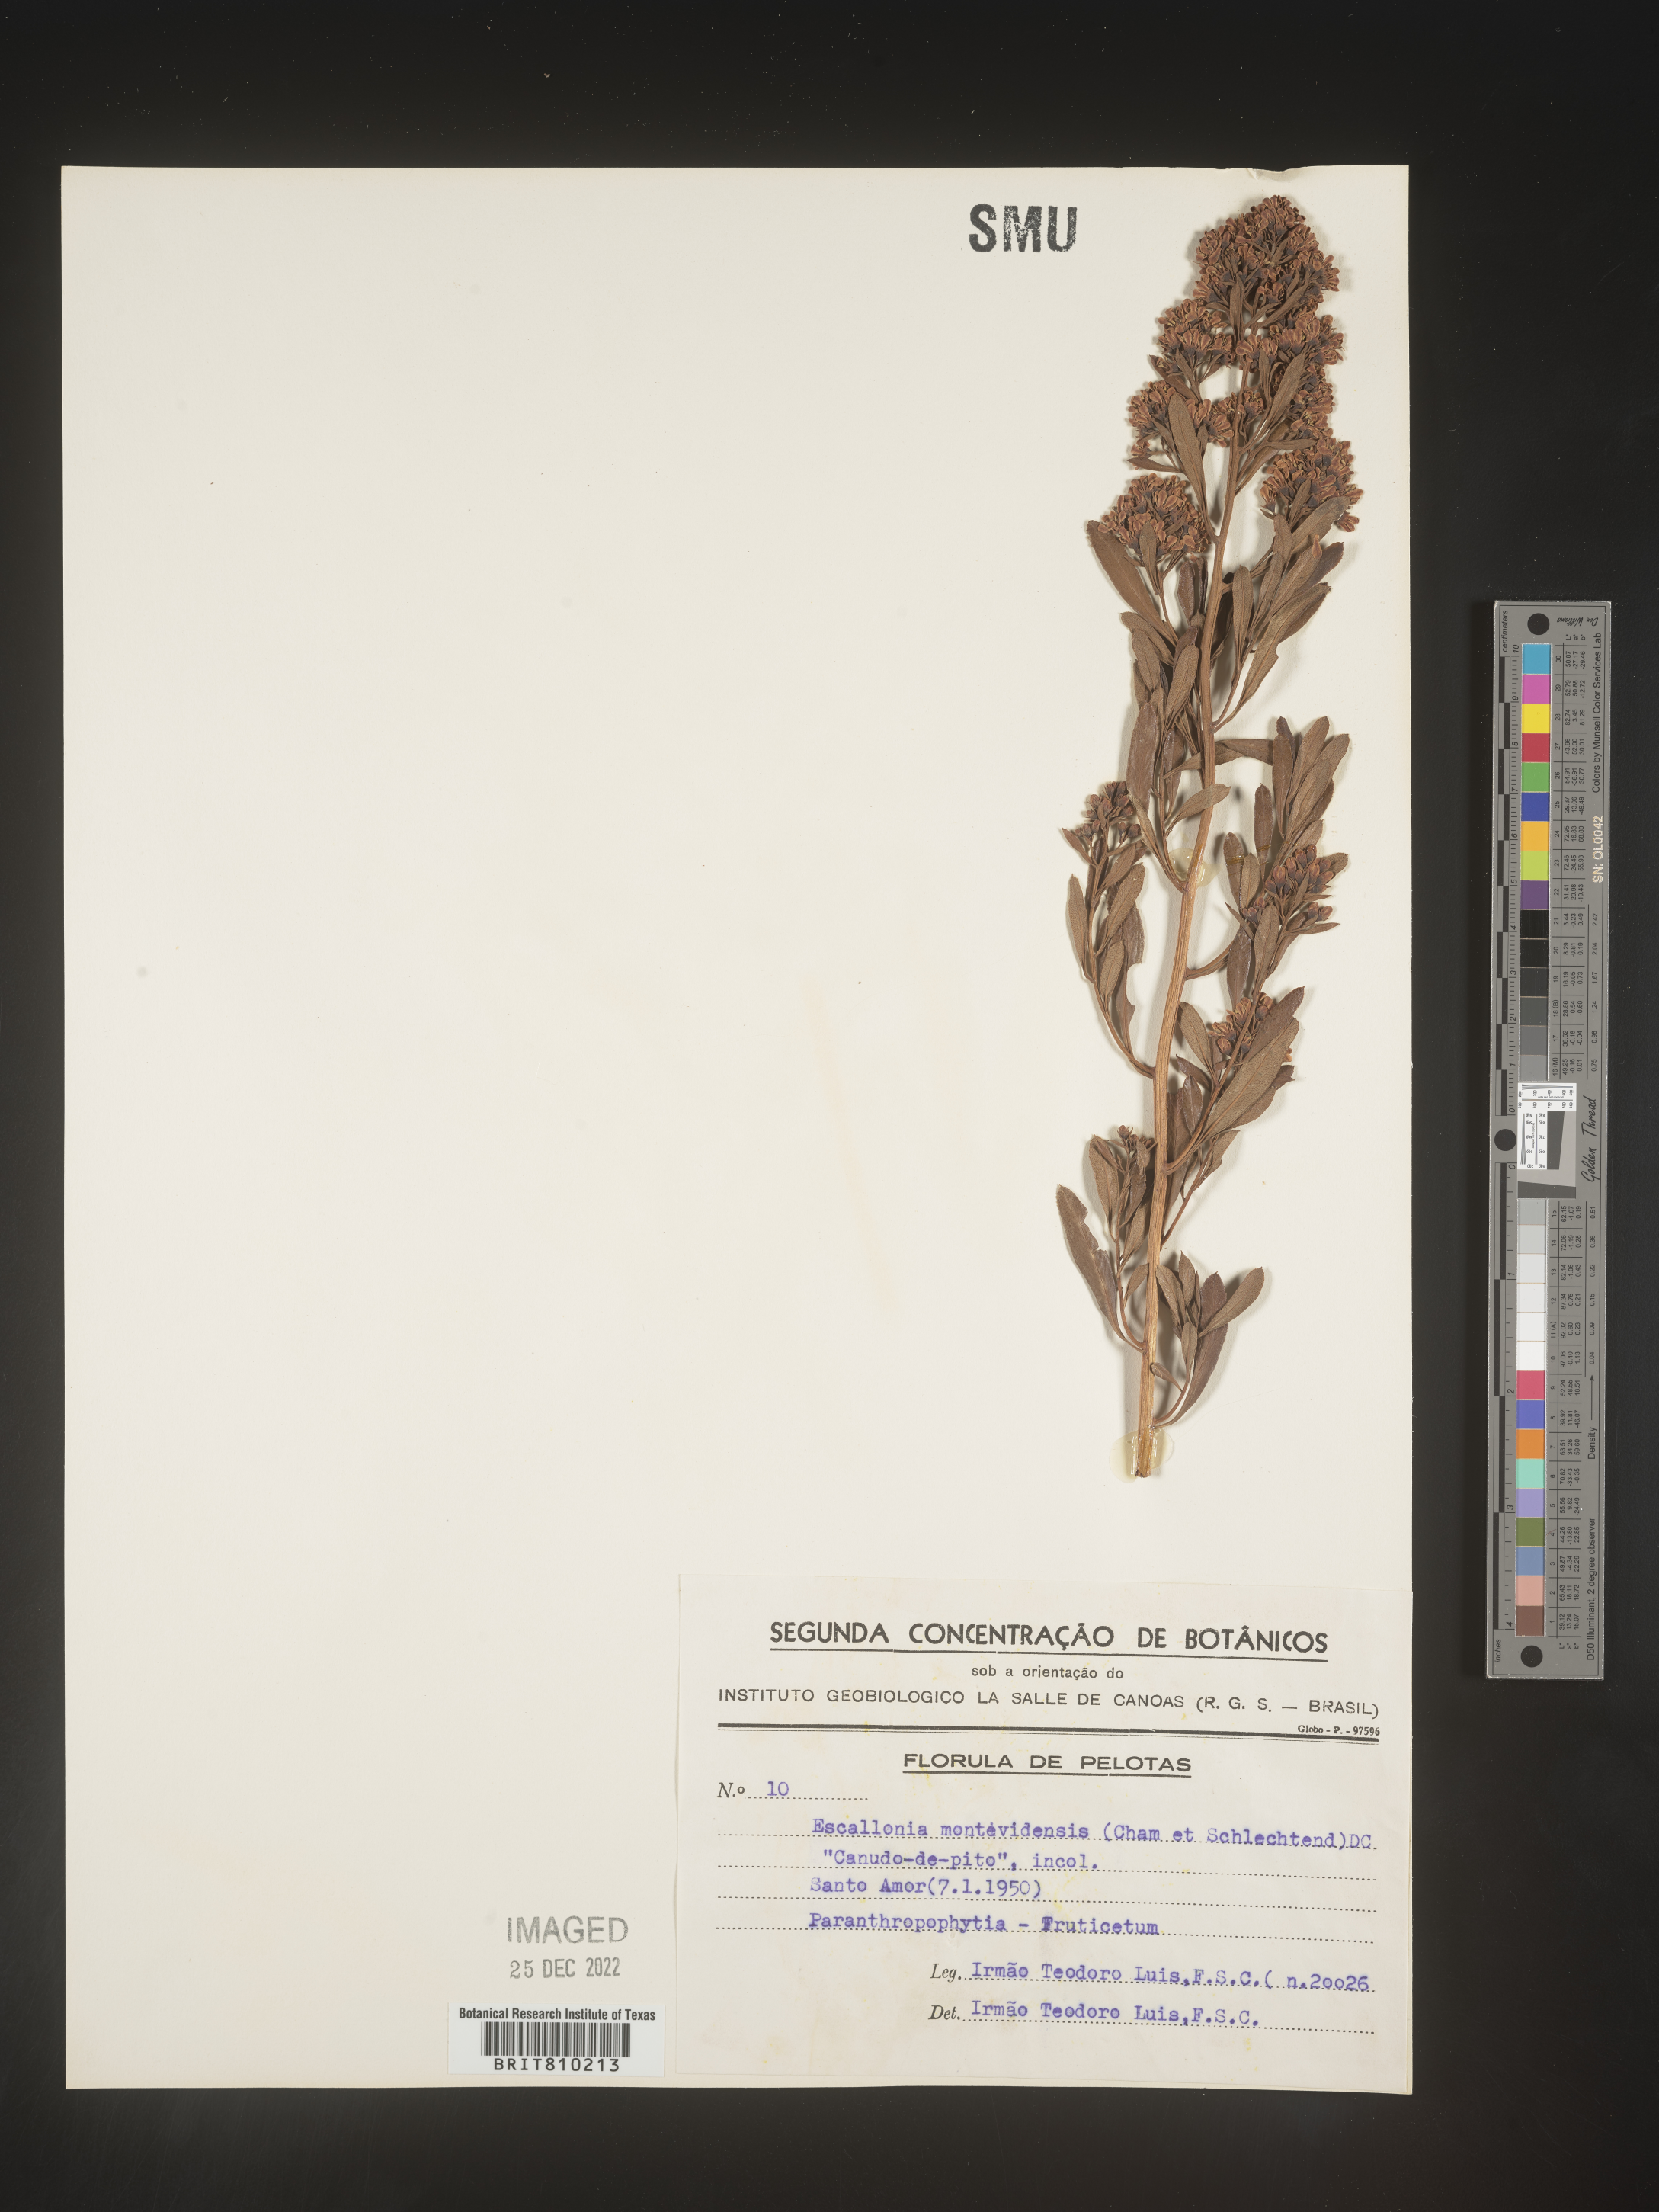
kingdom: Plantae
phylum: Tracheophyta
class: Magnoliopsida
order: Escalloniales
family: Escalloniaceae
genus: Escallonia
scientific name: Escallonia
